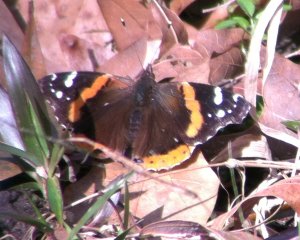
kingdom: Animalia
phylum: Arthropoda
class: Insecta
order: Lepidoptera
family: Nymphalidae
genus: Vanessa
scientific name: Vanessa atalanta
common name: Red Admiral
